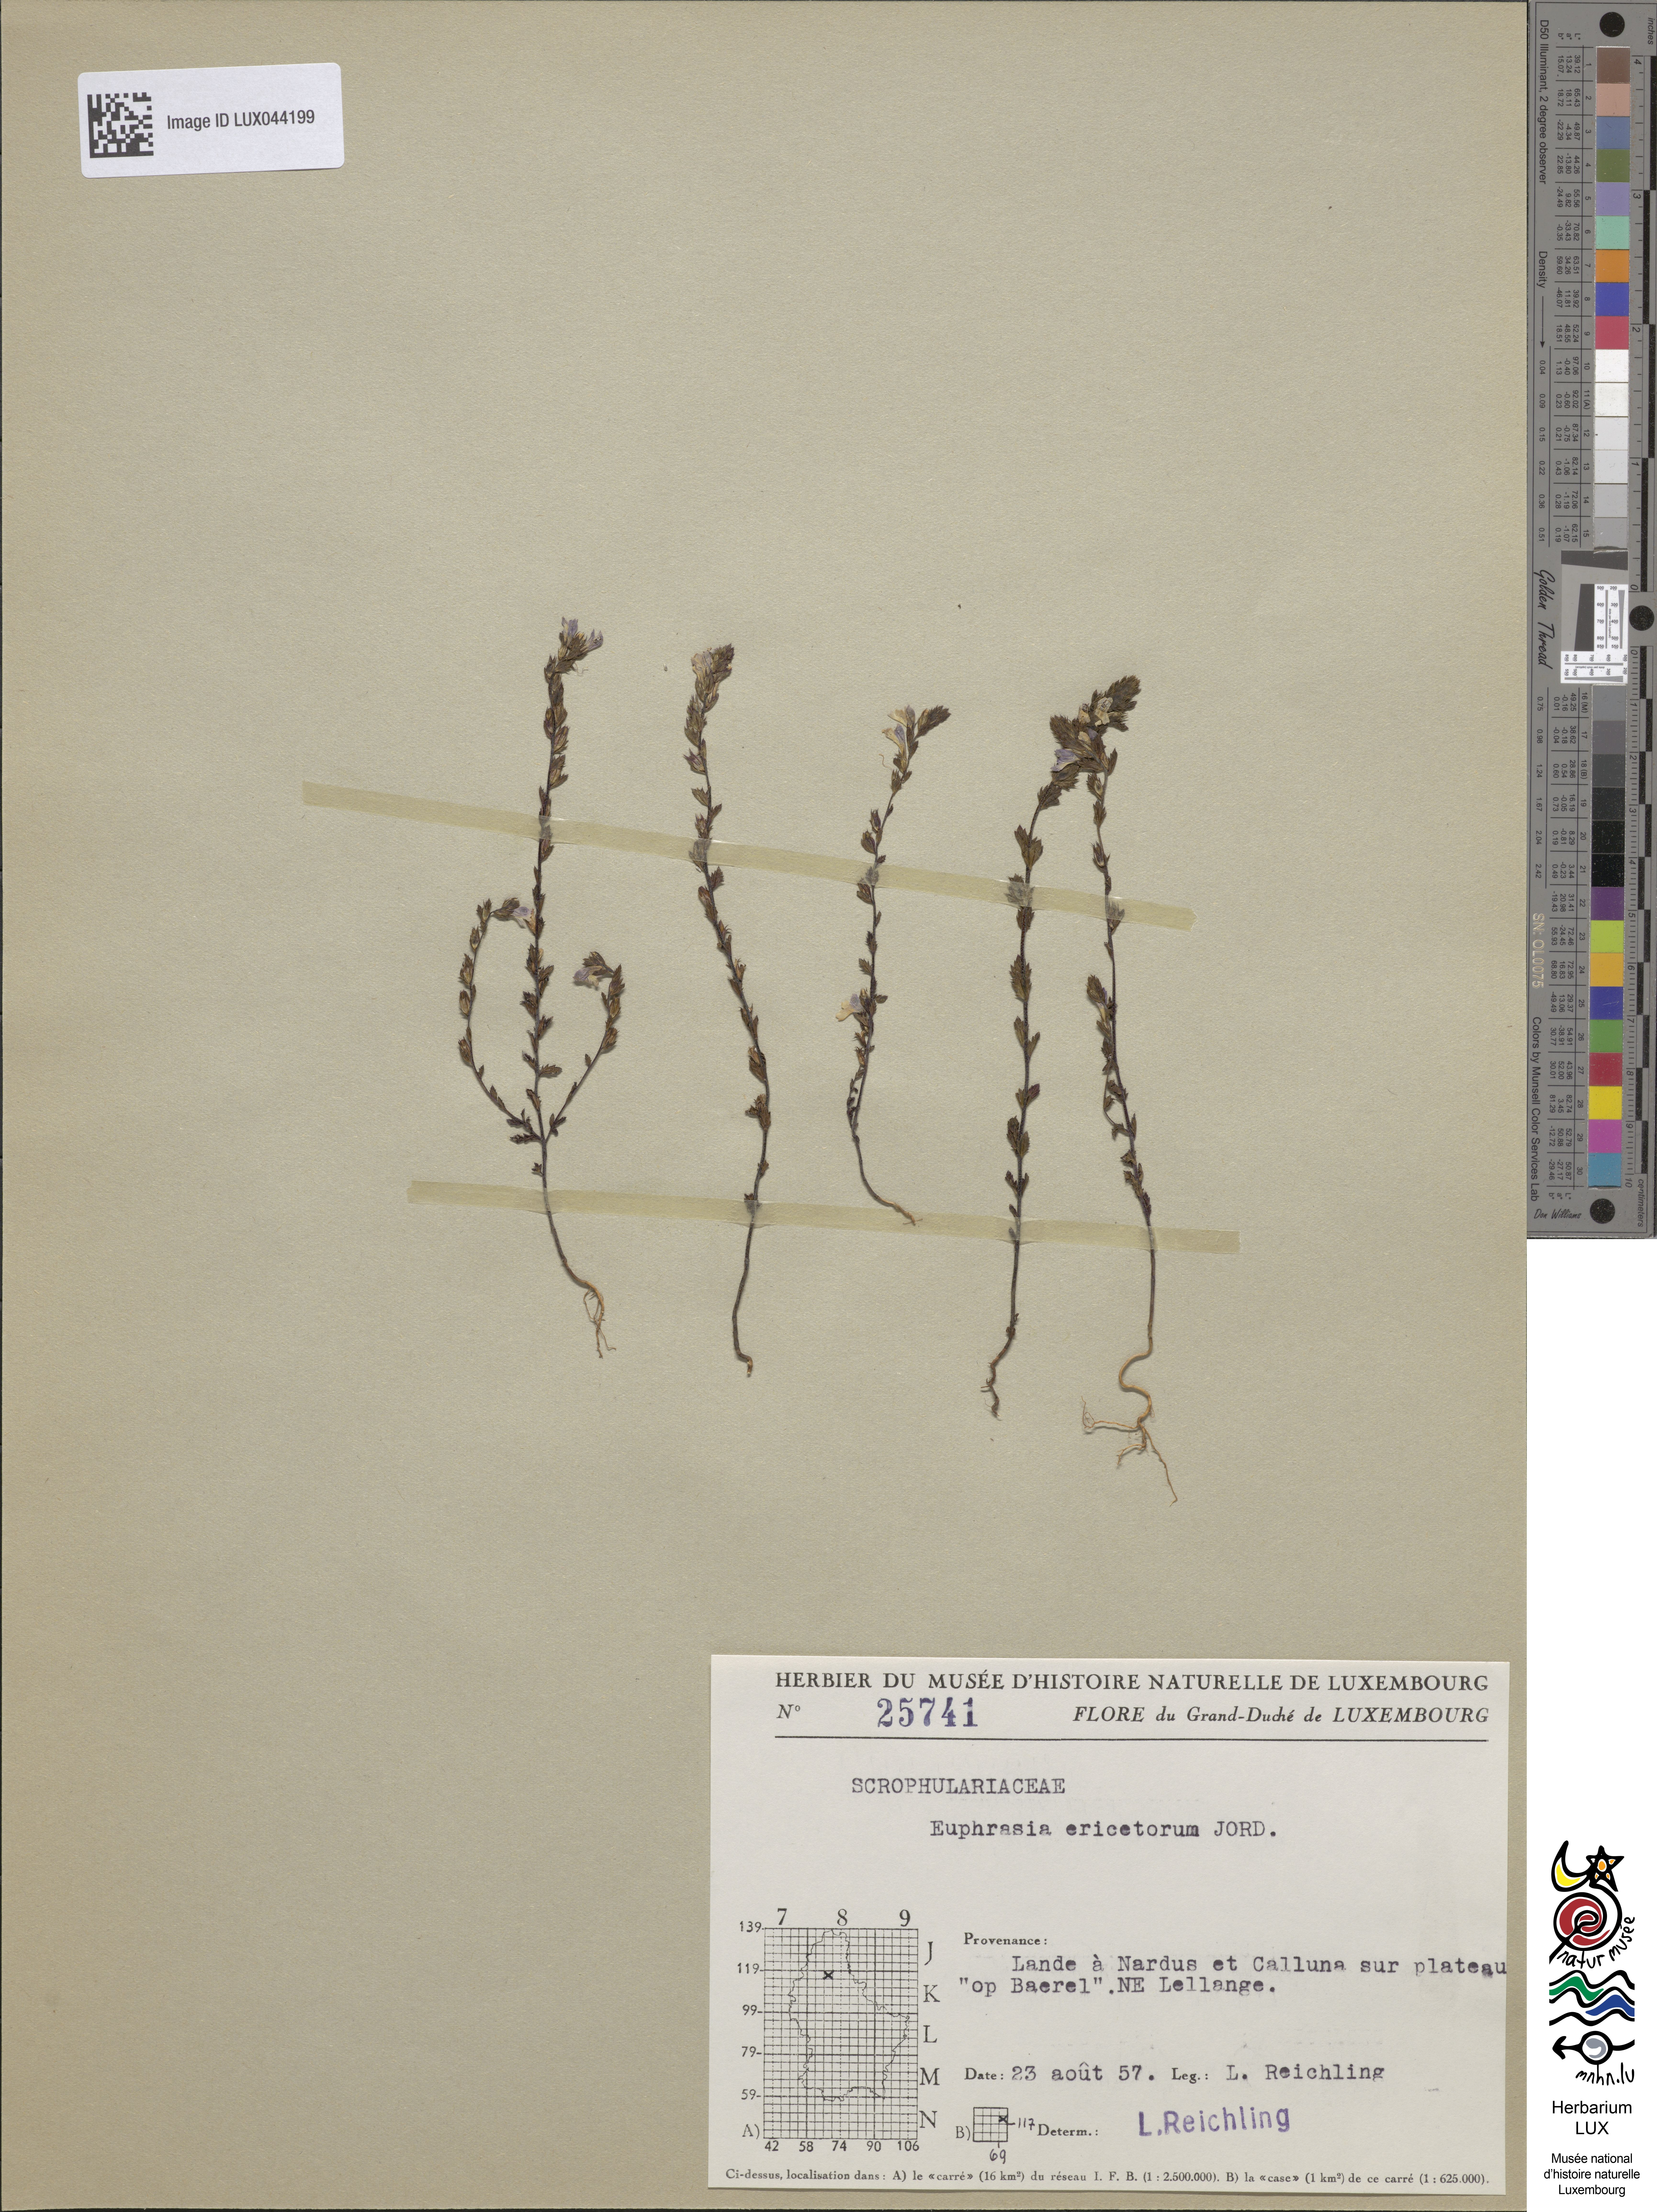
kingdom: Plantae
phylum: Tracheophyta
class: Magnoliopsida
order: Lamiales
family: Orobanchaceae
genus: Euphrasia
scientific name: Euphrasia stricta
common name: Drug eyebright
